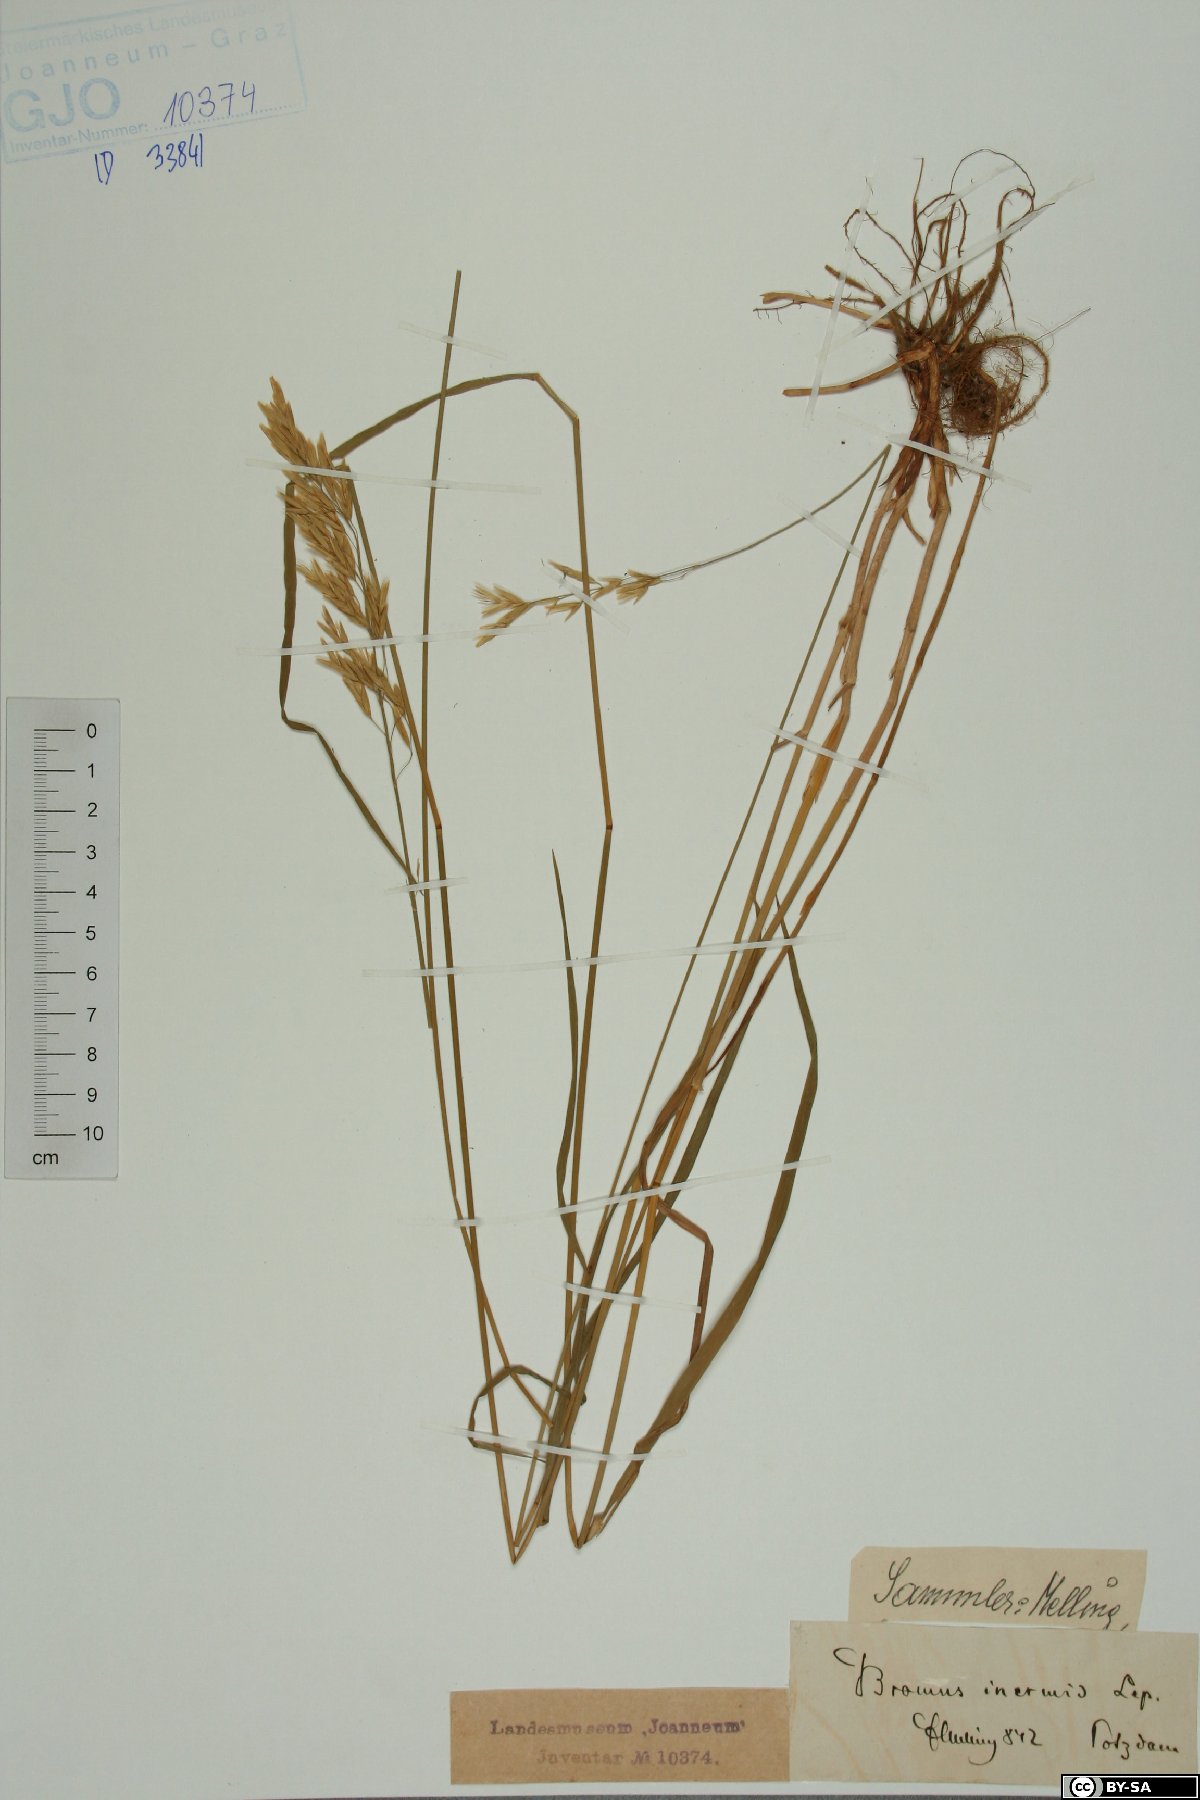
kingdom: Plantae
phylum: Tracheophyta
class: Liliopsida
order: Poales
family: Poaceae
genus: Bromus
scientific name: Bromus inermis
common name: Smooth brome
